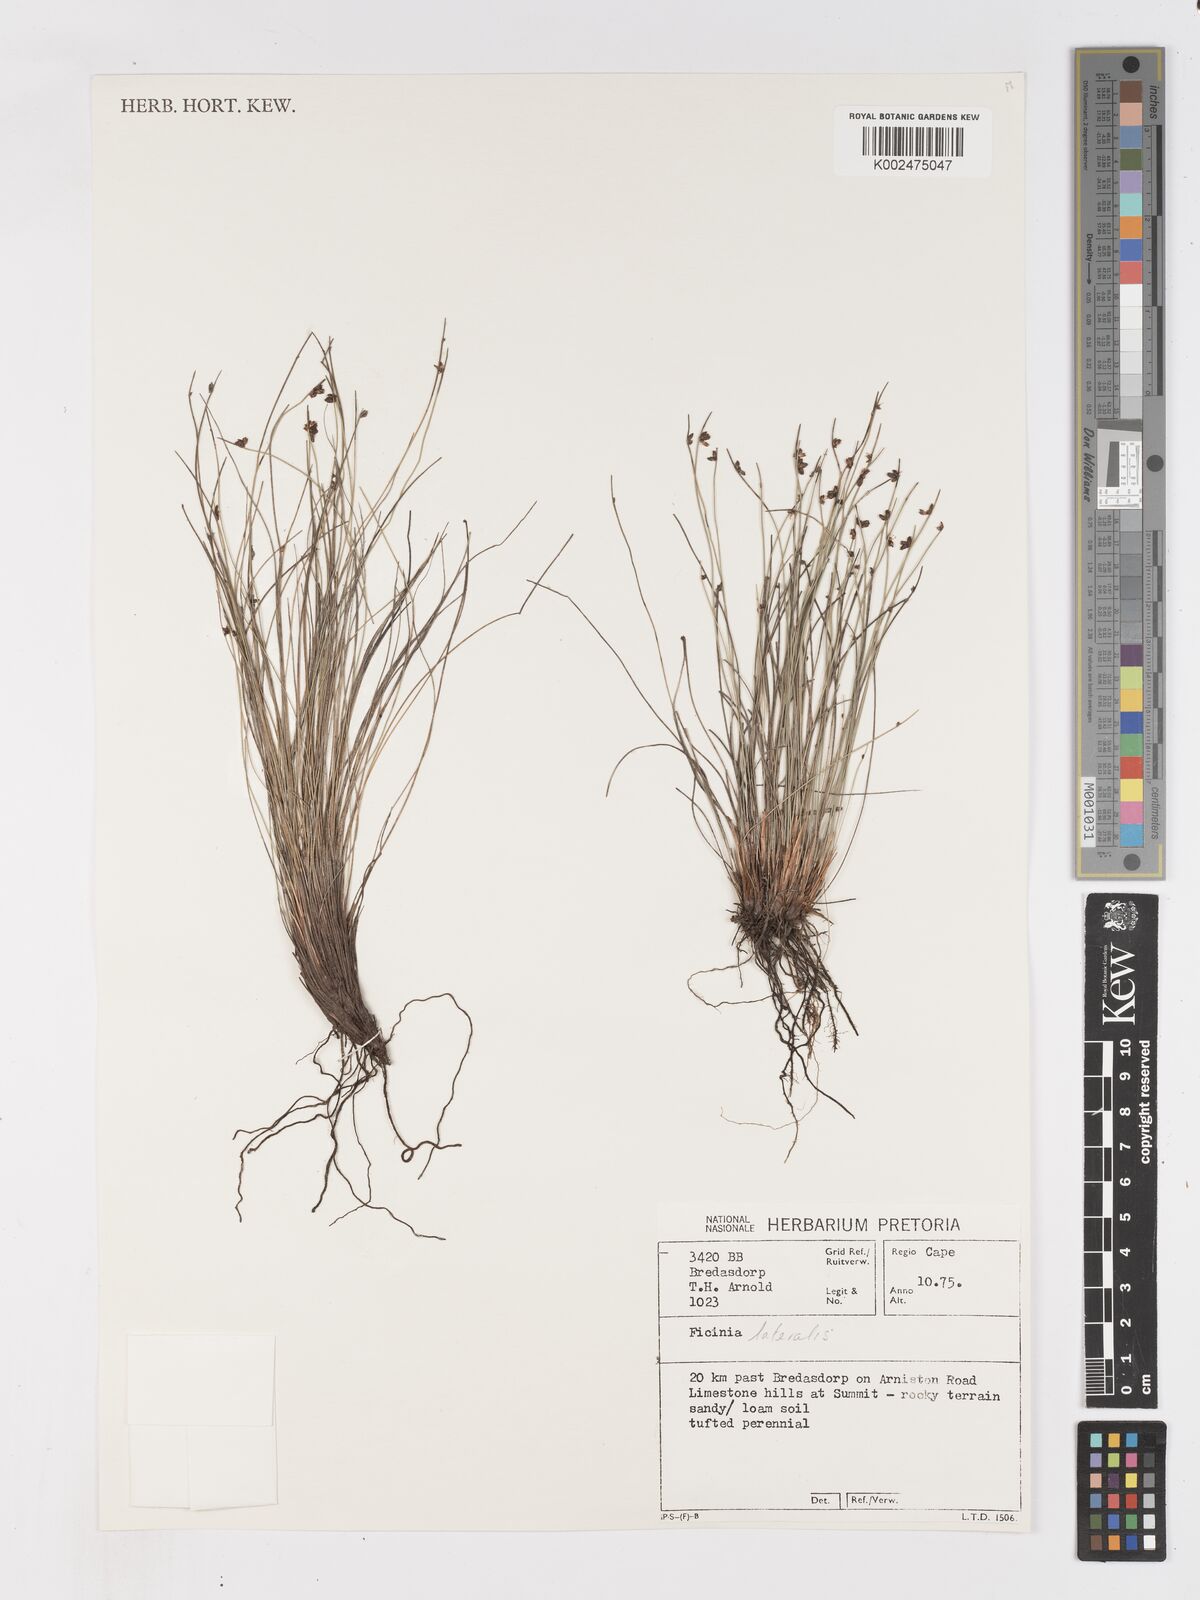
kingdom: Plantae
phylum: Tracheophyta
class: Liliopsida
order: Poales
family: Cyperaceae
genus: Ficinia
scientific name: Ficinia lateralis
